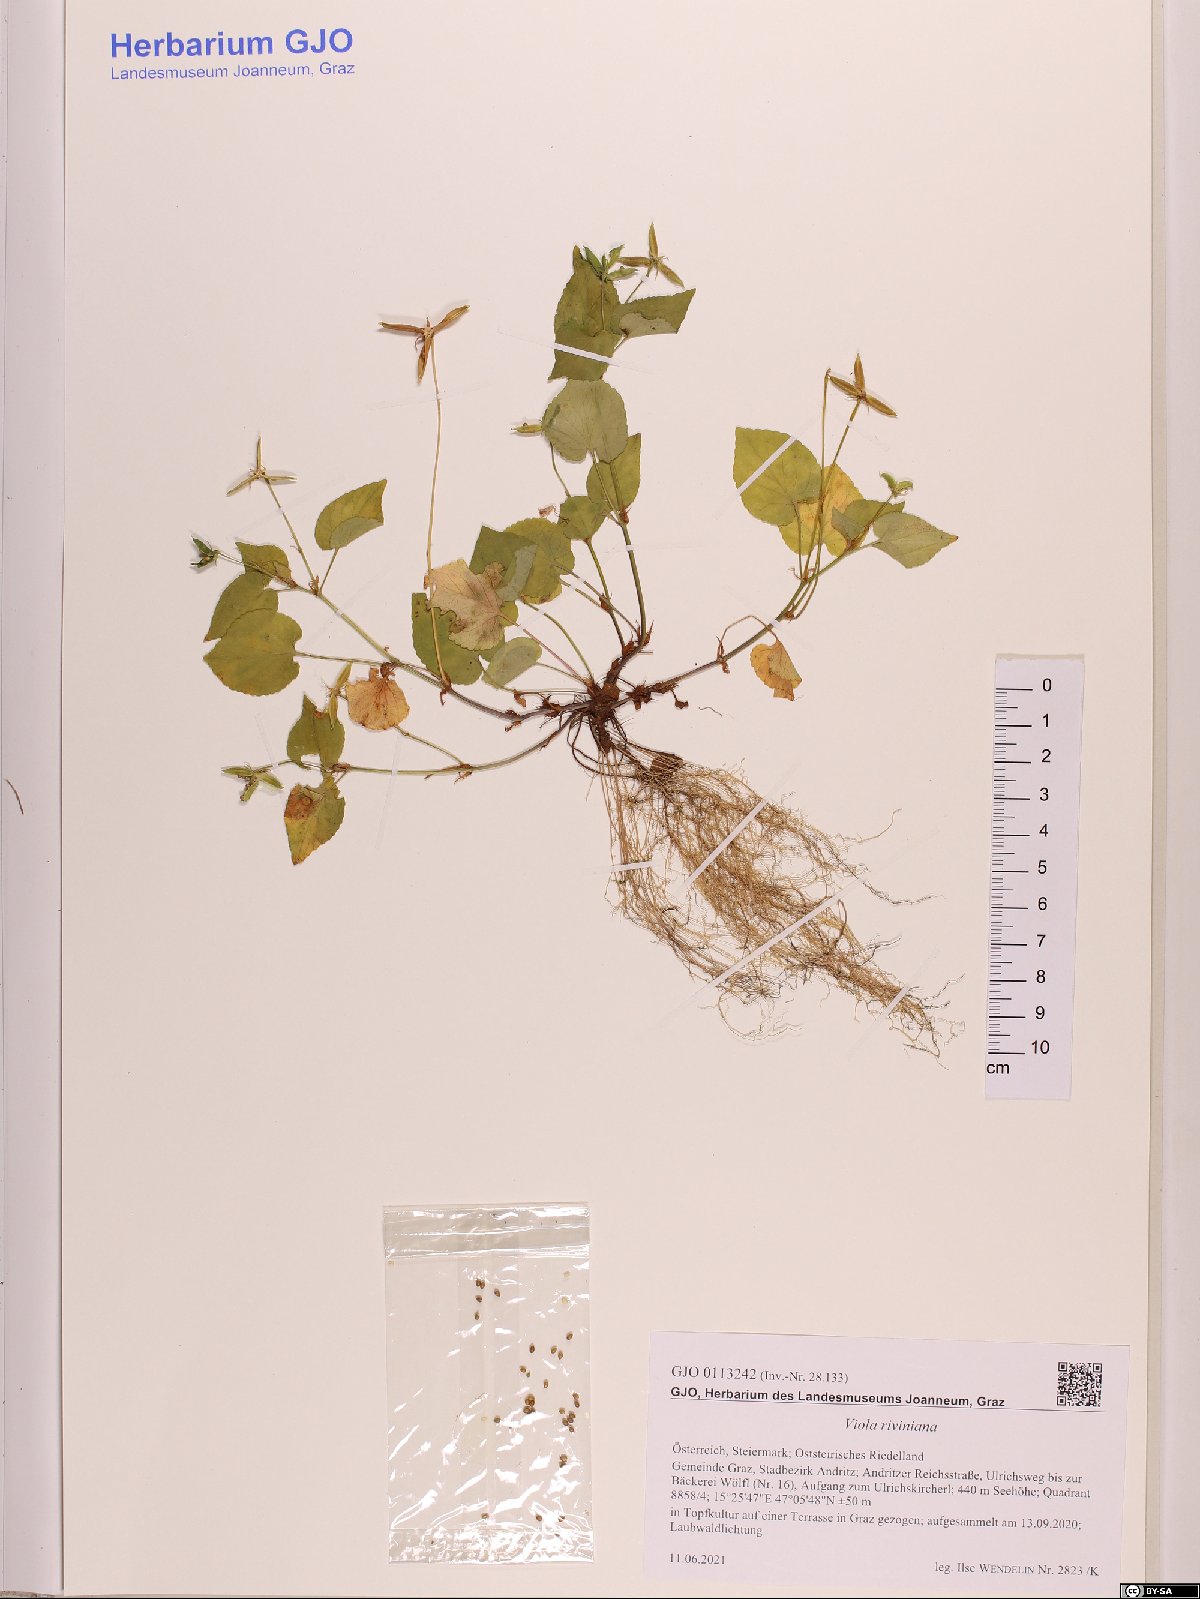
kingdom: Plantae
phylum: Tracheophyta
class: Magnoliopsida
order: Malpighiales
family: Violaceae
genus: Viola
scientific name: Viola riviniana
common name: Common dog-violet
